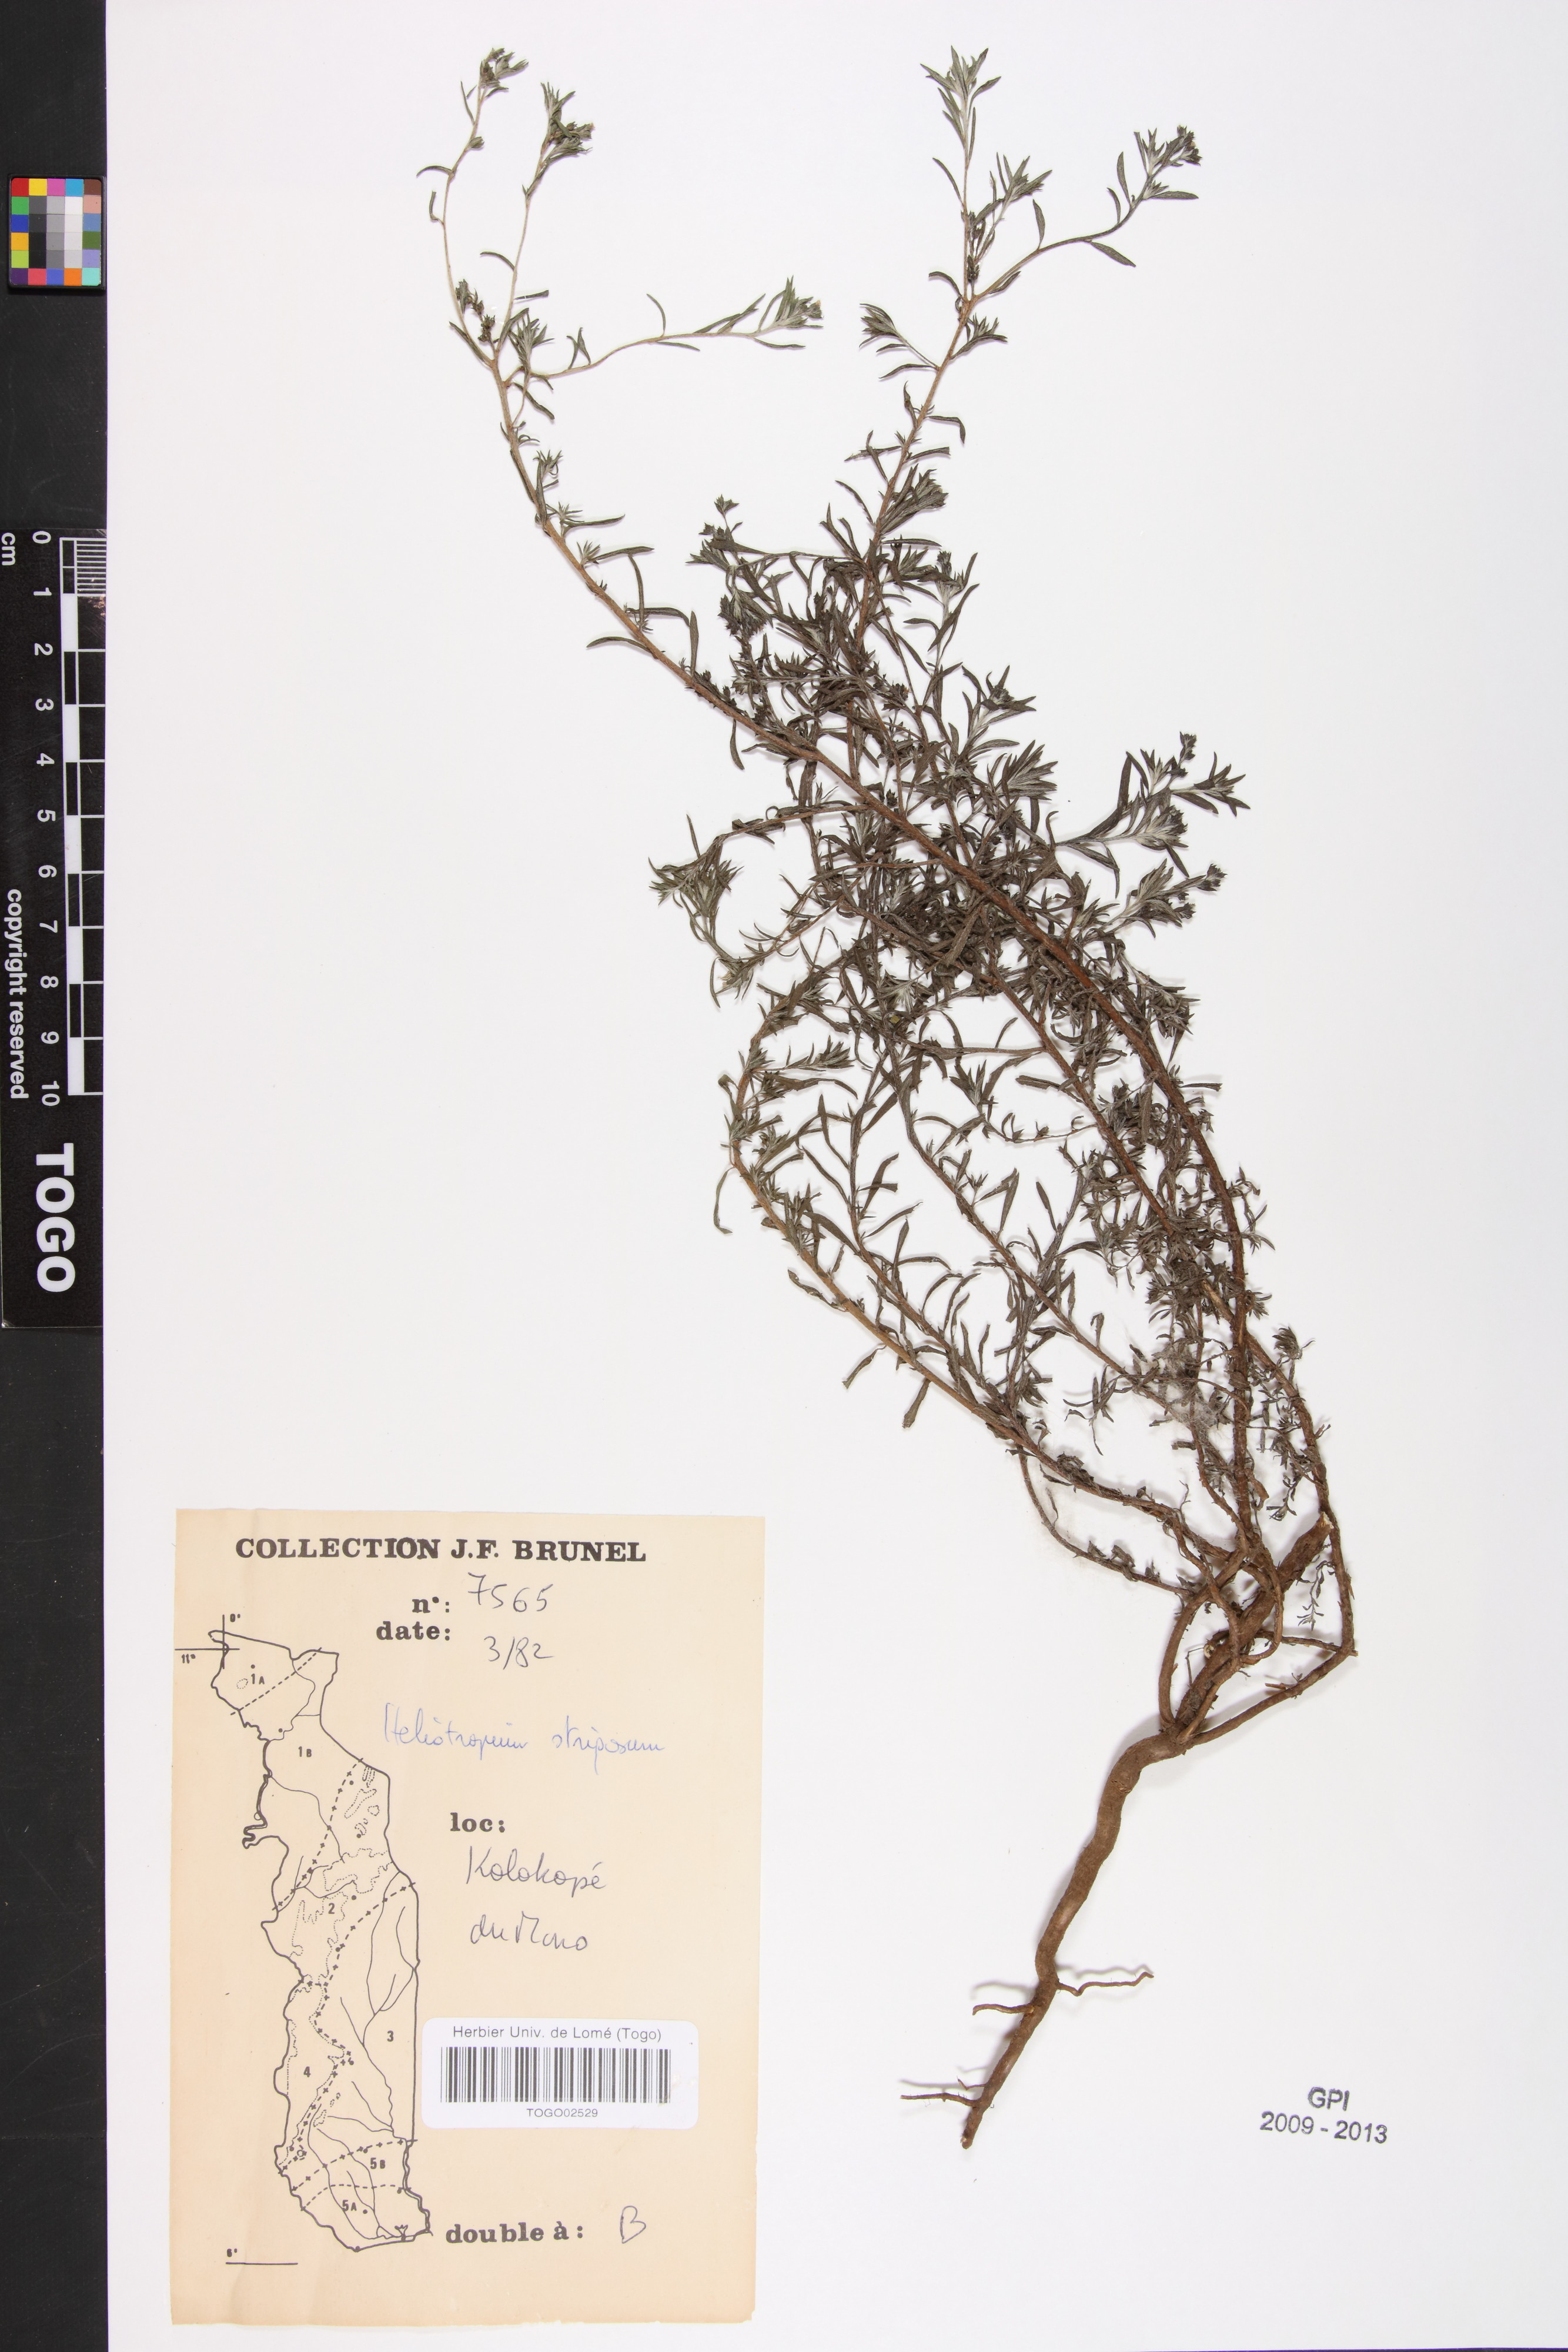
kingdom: Plantae
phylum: Tracheophyta
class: Magnoliopsida
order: Boraginales
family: Heliotropiaceae
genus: Euploca
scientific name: Euploca strigosa
